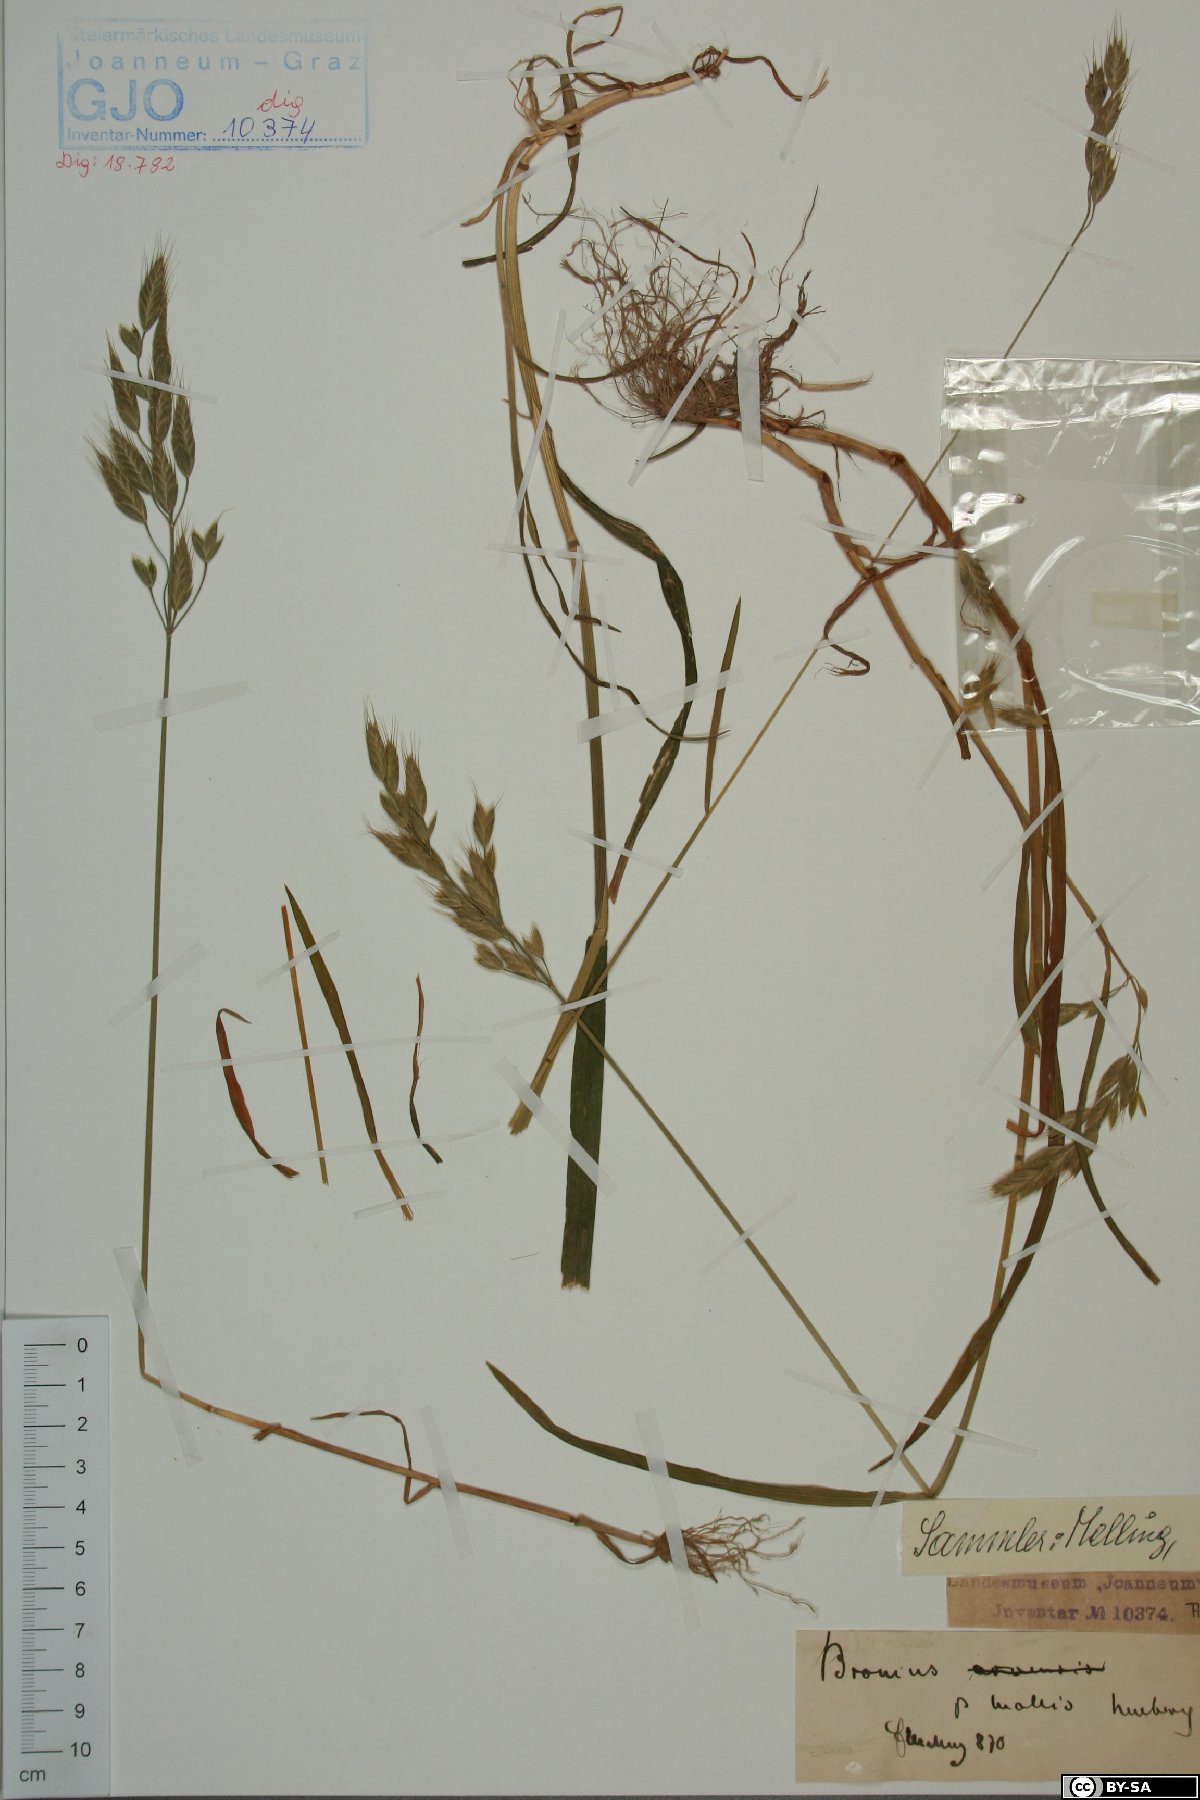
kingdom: Plantae
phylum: Tracheophyta
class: Liliopsida
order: Poales
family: Poaceae
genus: Bromus
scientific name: Bromus hordeaceus
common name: Soft brome
